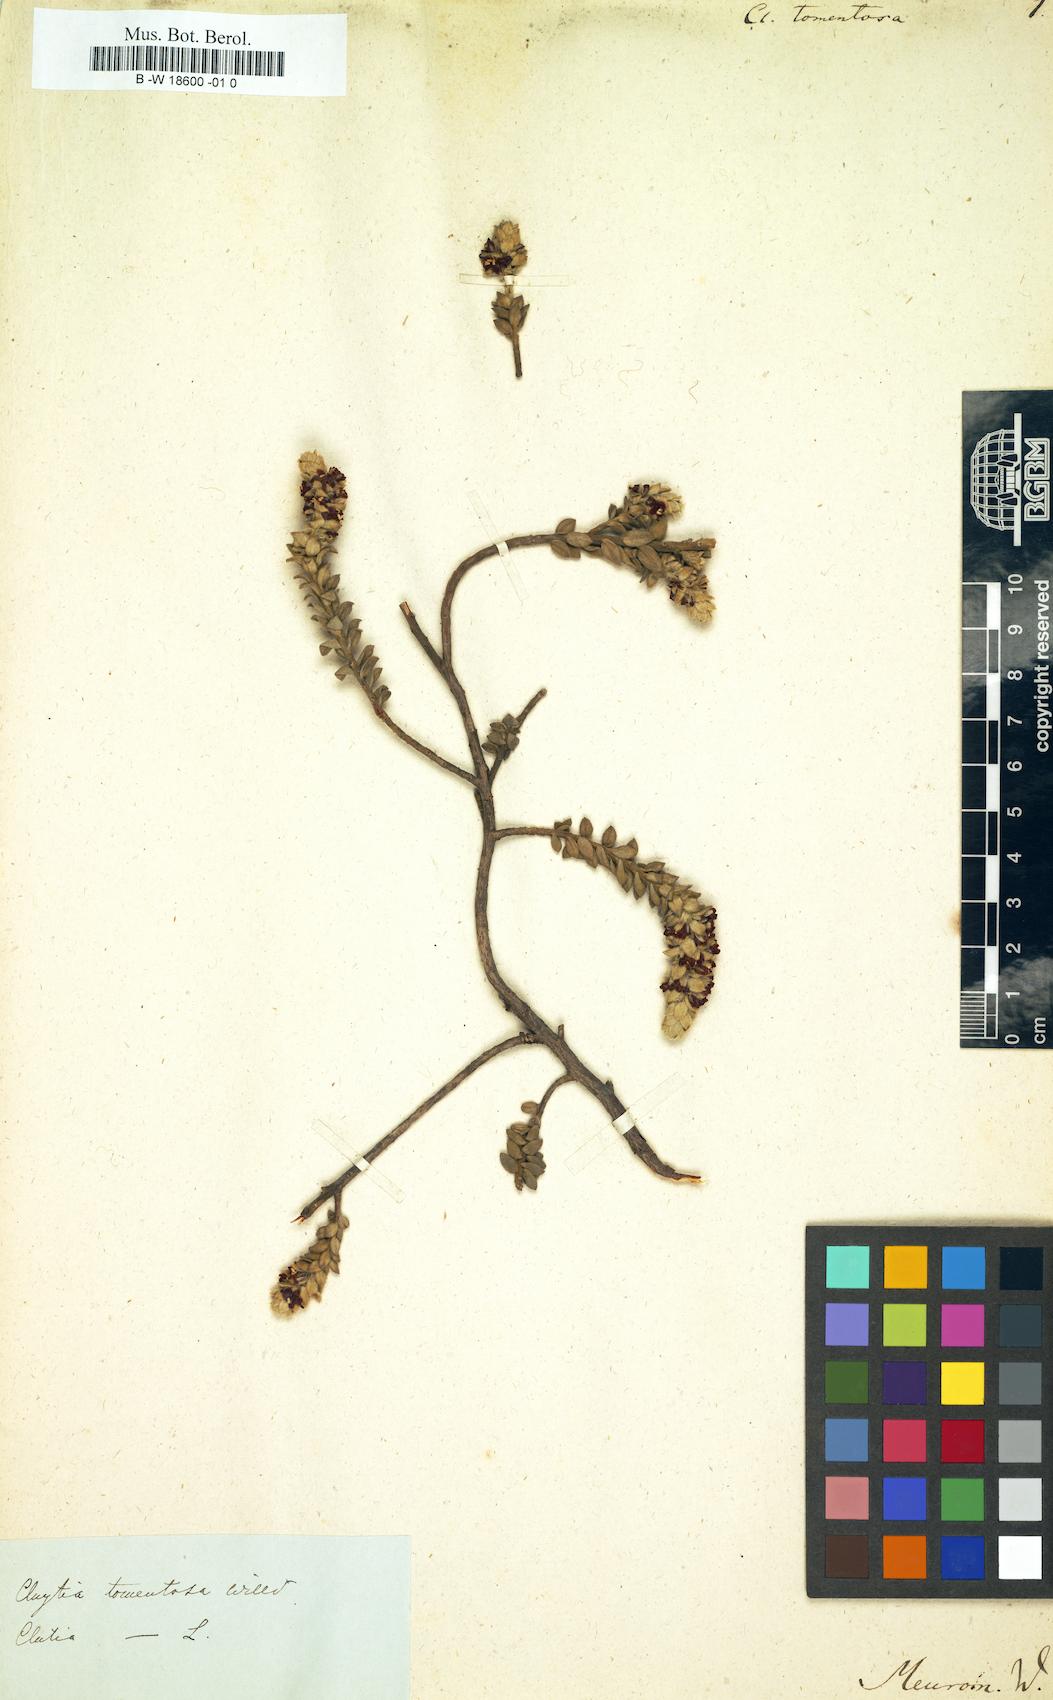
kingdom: Plantae
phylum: Tracheophyta
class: Magnoliopsida
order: Malpighiales
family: Peraceae
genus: Clutia
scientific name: Clutia
